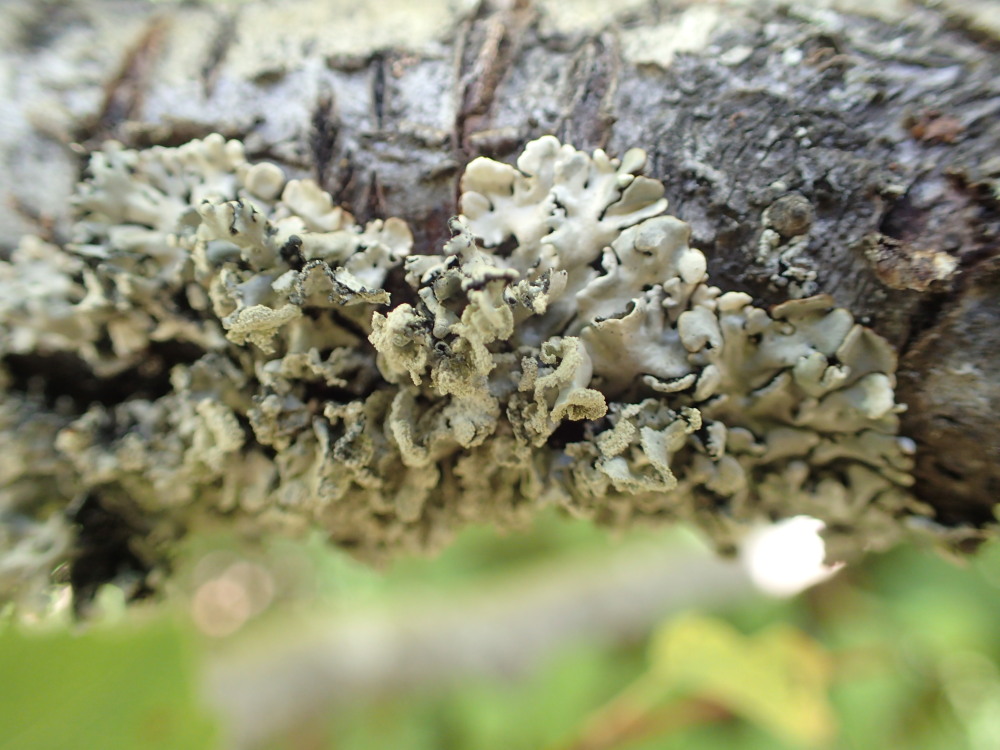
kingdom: Fungi
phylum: Ascomycota
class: Lecanoromycetes
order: Lecanorales
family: Parmeliaceae
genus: Hypogymnia
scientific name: Hypogymnia physodes
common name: almindelig kvistlav
